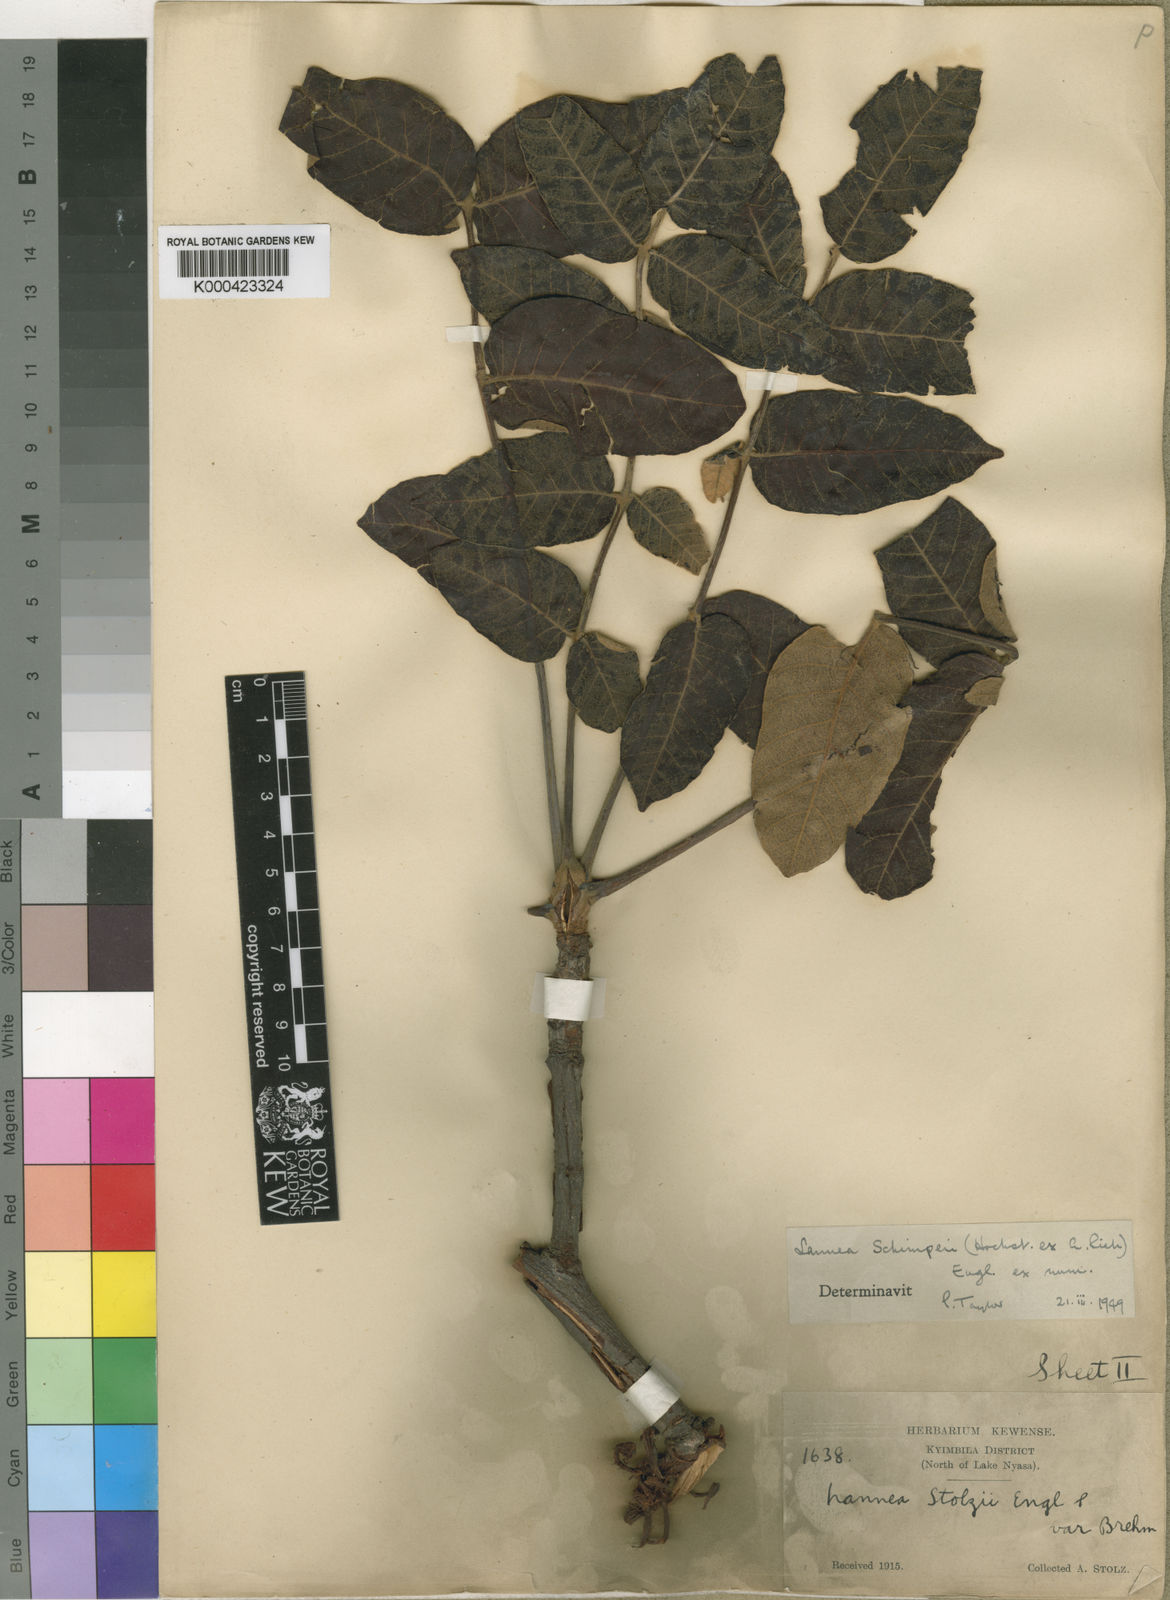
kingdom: Plantae
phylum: Tracheophyta
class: Magnoliopsida
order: Sapindales
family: Anacardiaceae
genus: Lannea
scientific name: Lannea schimperi
